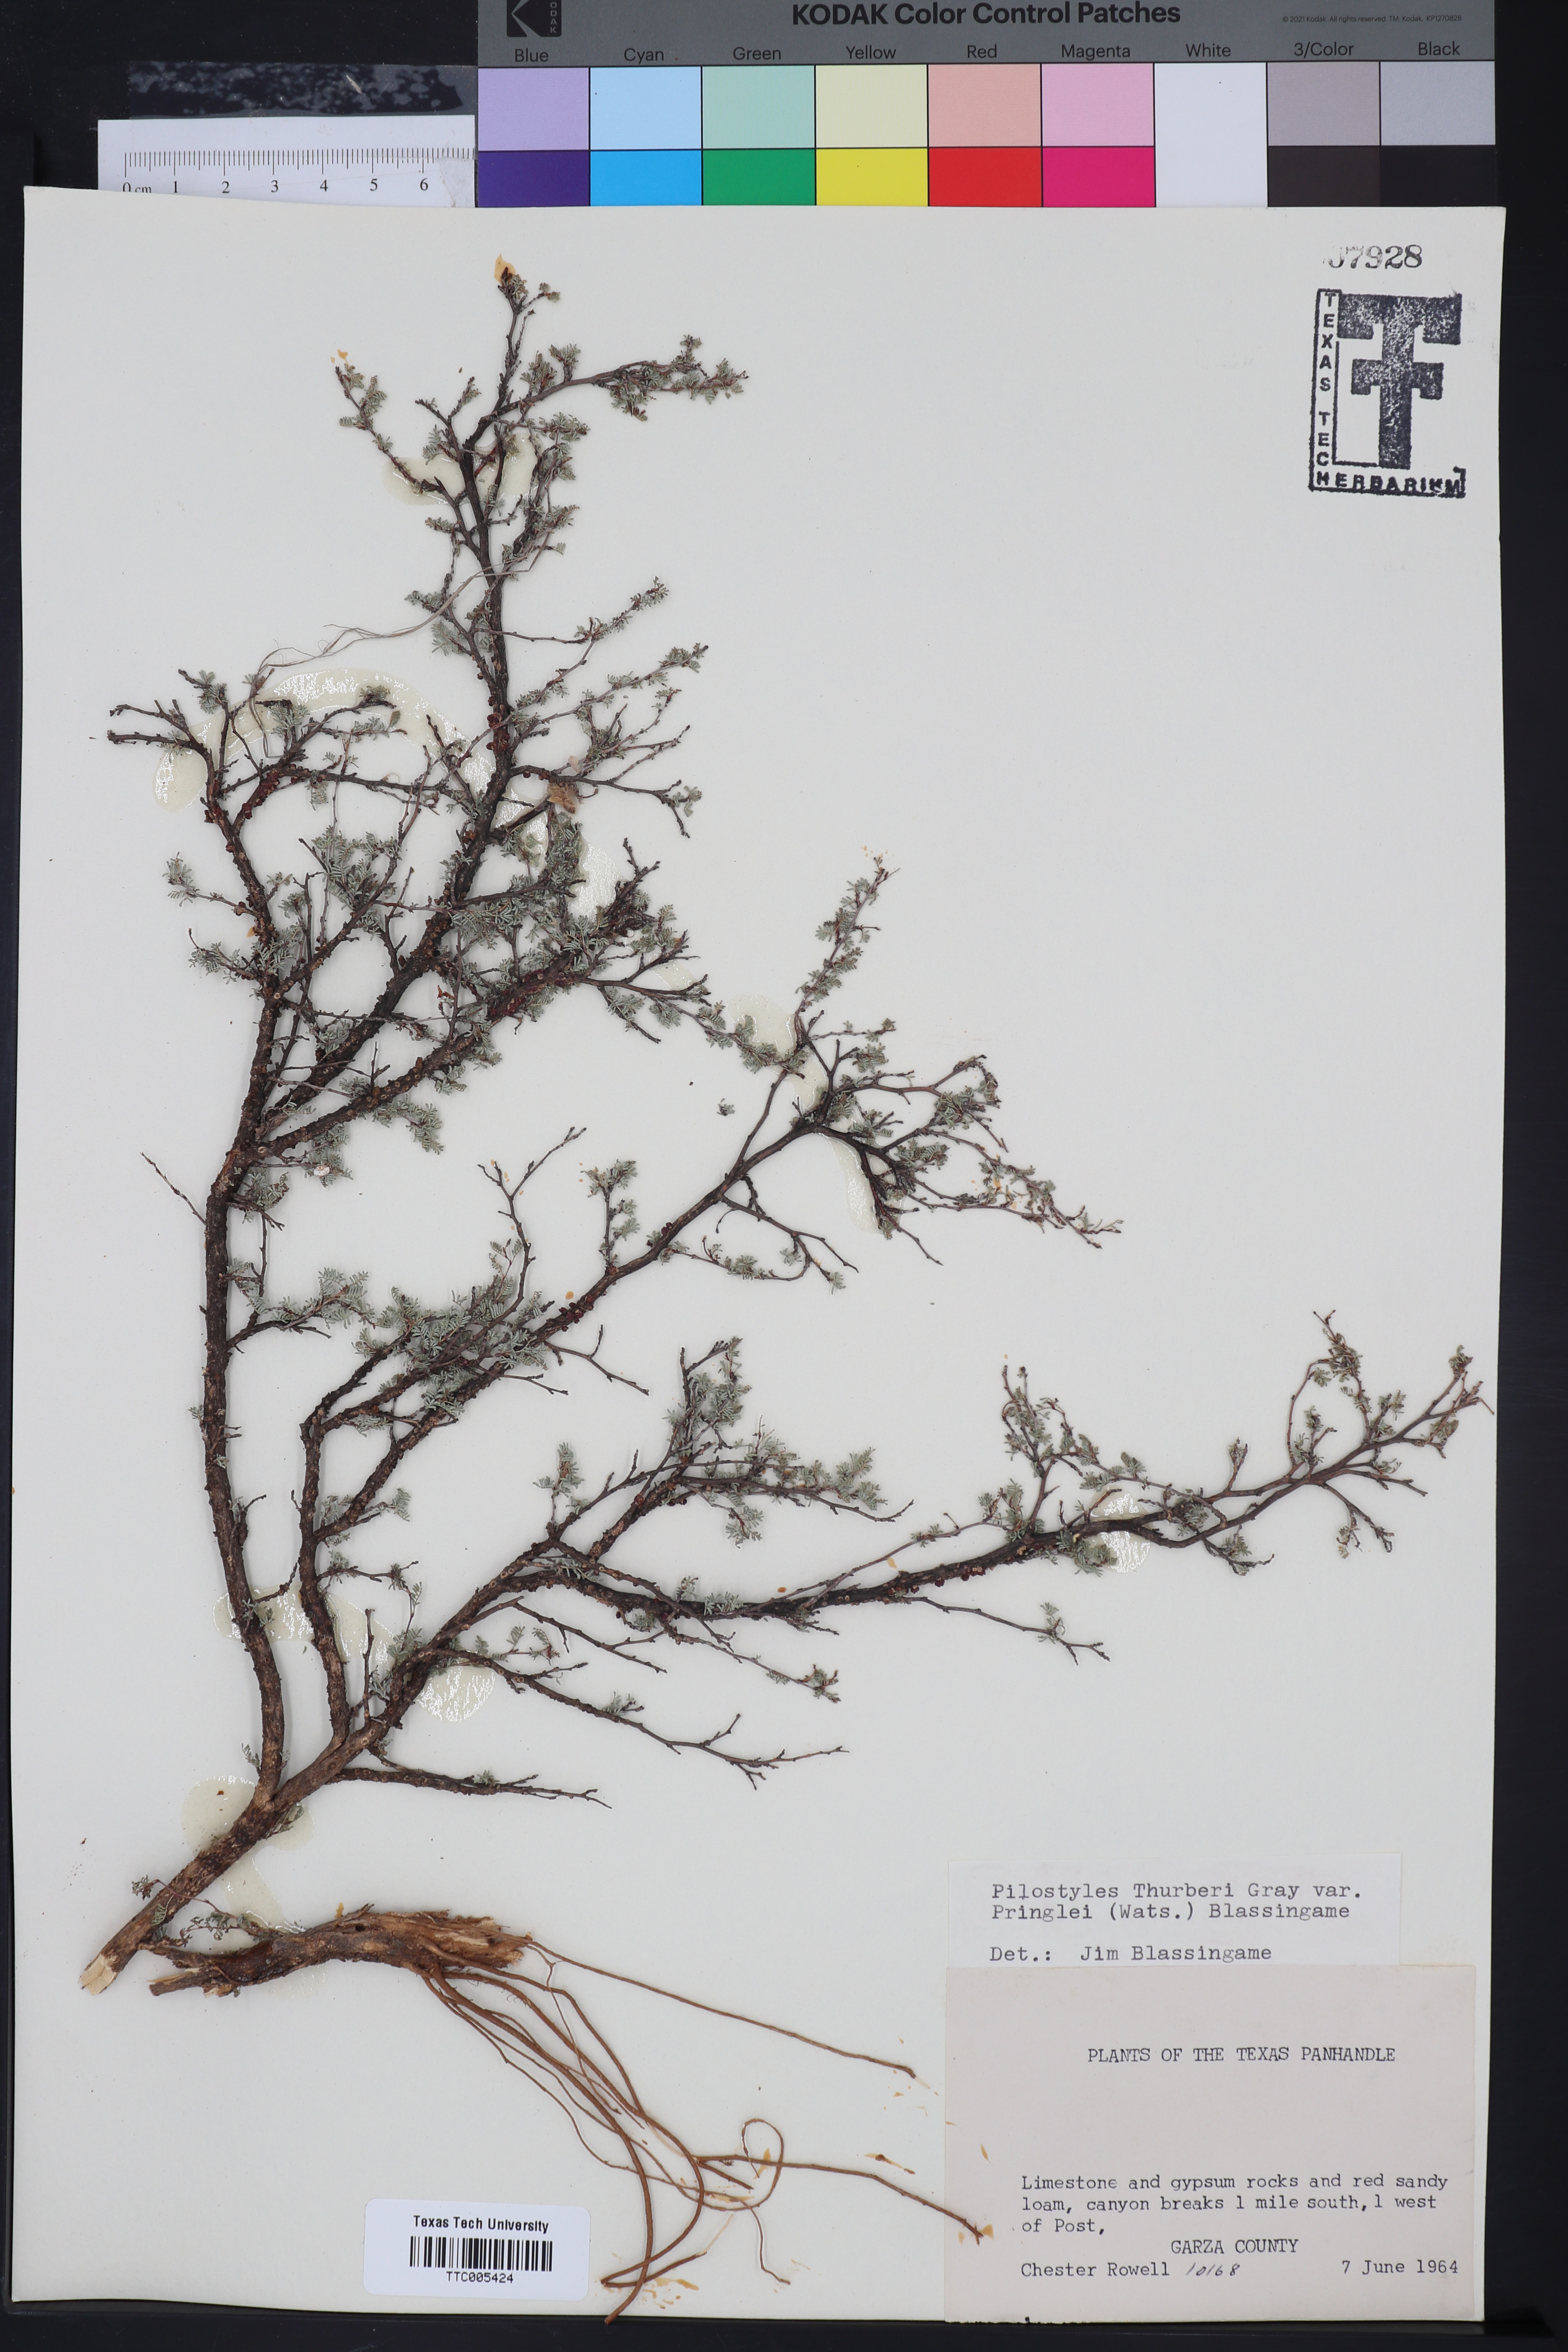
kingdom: Plantae
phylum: Tracheophyta
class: Magnoliopsida
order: Cucurbitales
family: Apodanthaceae
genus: Pilostyles
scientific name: Pilostyles thurberi
